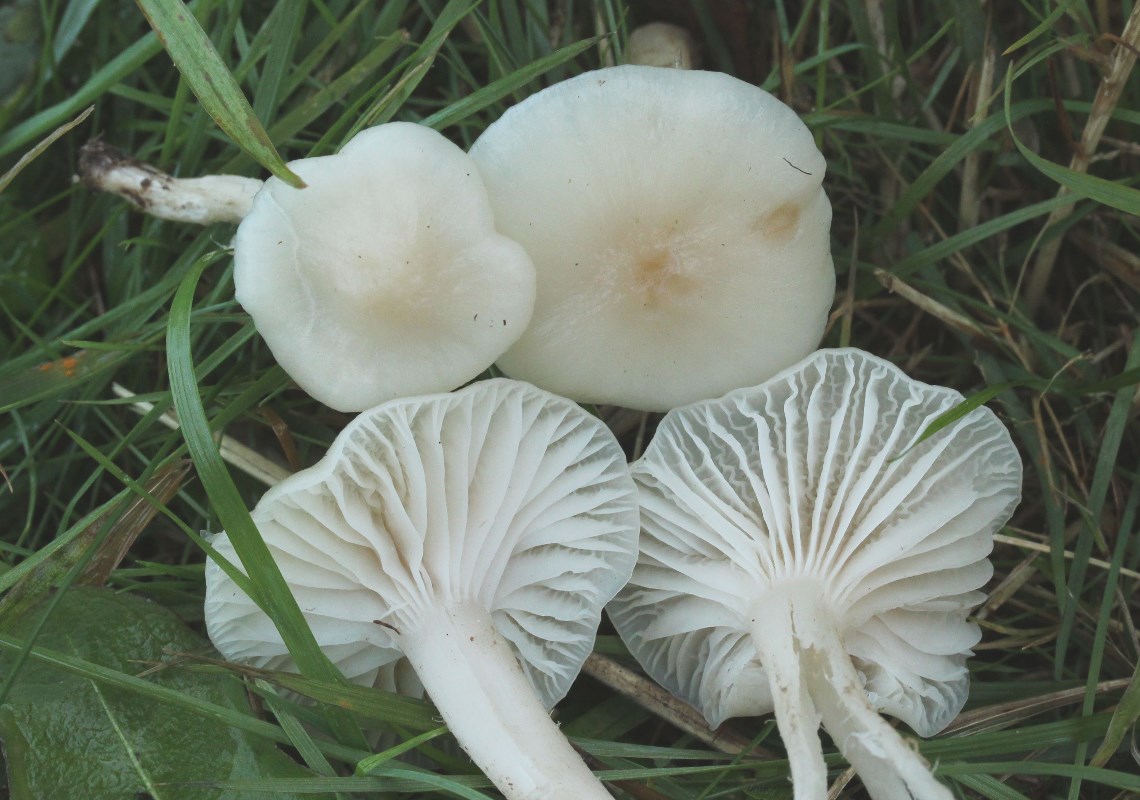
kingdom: Fungi
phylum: Basidiomycota
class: Agaricomycetes
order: Agaricales
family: Hygrophoraceae
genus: Cuphophyllus
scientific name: Cuphophyllus virgineus
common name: snehvid vokshat
